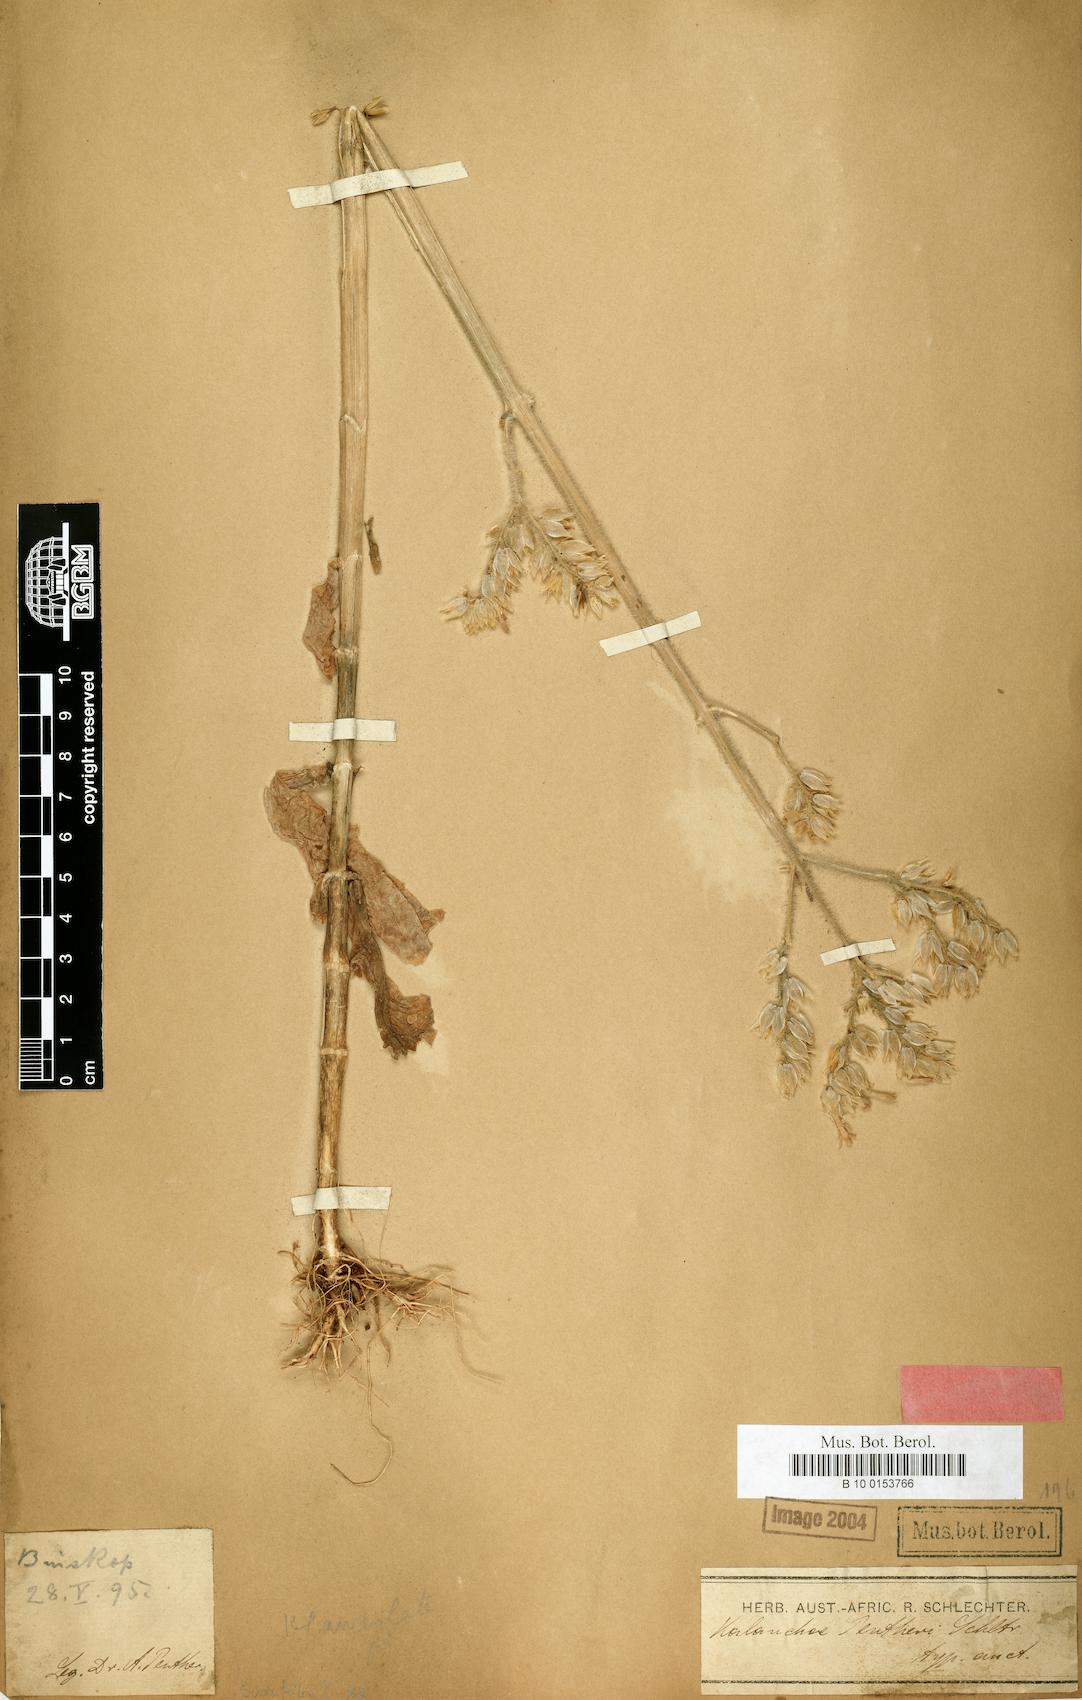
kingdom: Plantae
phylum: Tracheophyta
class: Magnoliopsida
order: Saxifragales
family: Crassulaceae
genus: Kalanchoe
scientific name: Kalanchoe lanceolata
